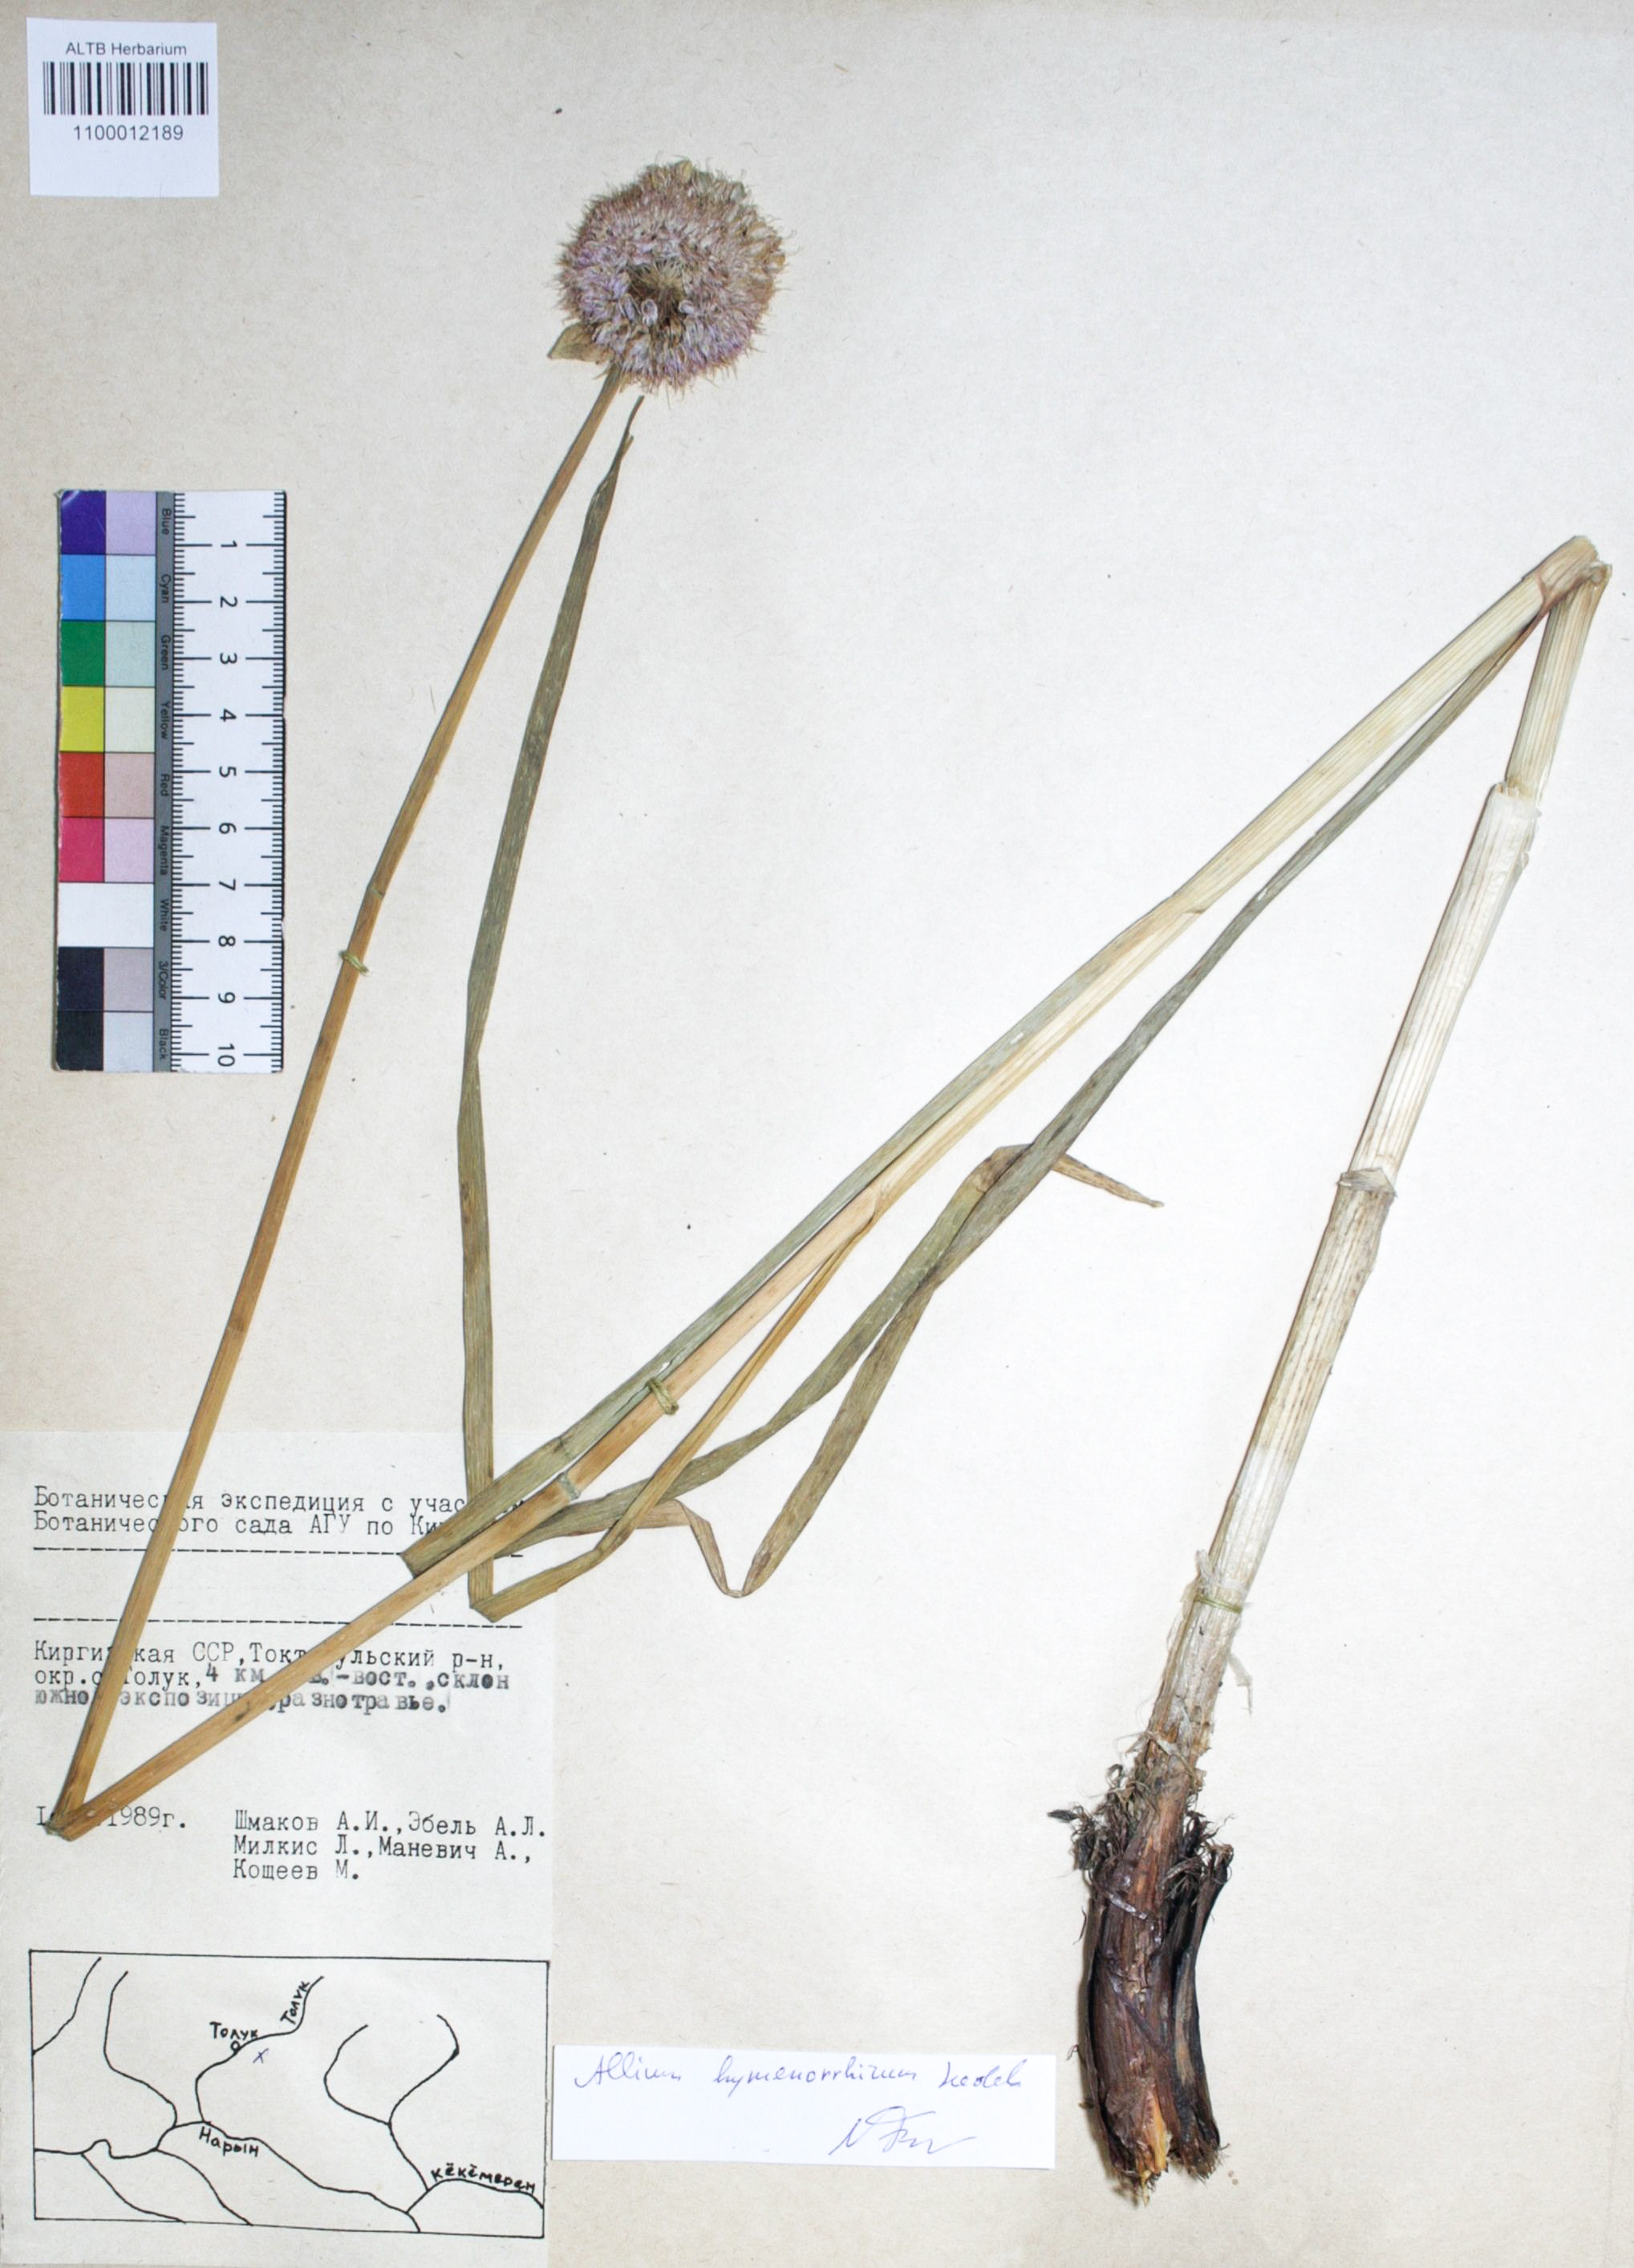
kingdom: Plantae
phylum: Tracheophyta
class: Liliopsida
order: Asparagales
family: Amaryllidaceae
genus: Allium
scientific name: Allium hymenorhizum
